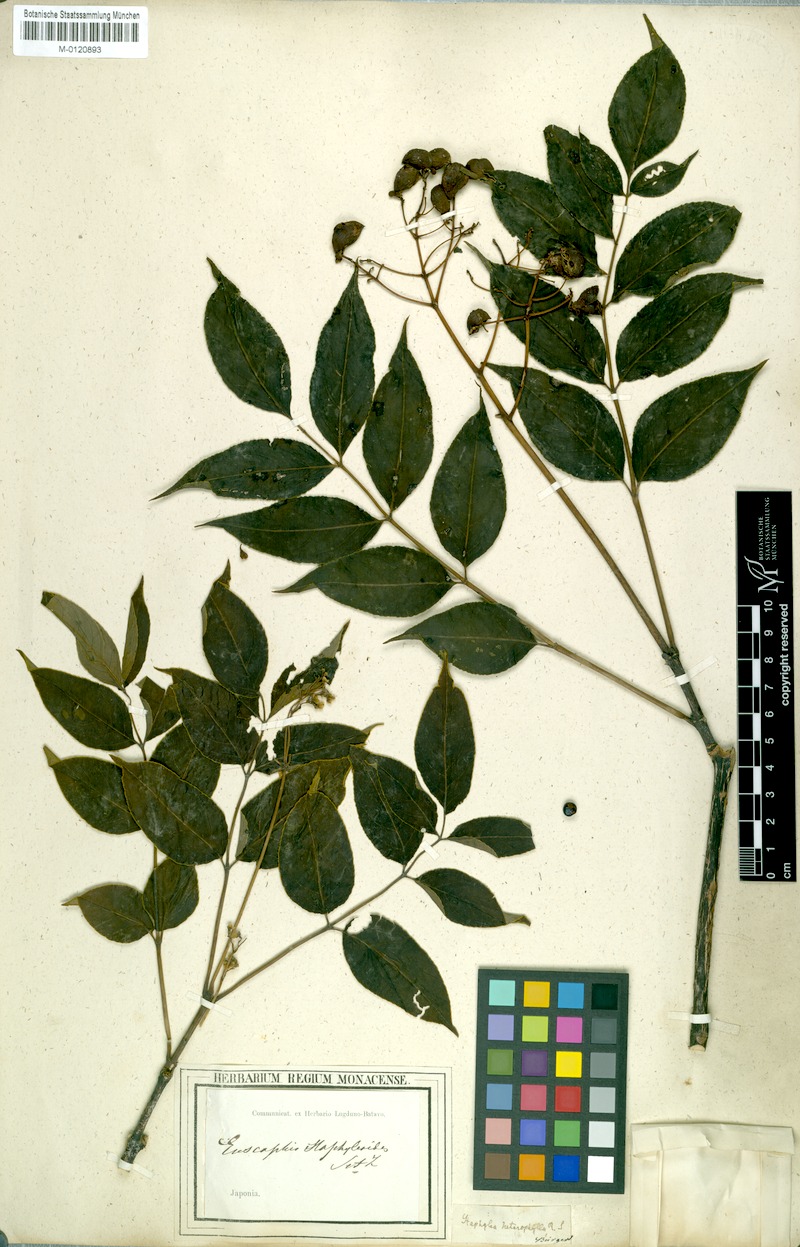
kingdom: Plantae
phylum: Tracheophyta
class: Magnoliopsida
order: Crossosomatales
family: Staphyleaceae
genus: Staphylea
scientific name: Staphylea japonica
